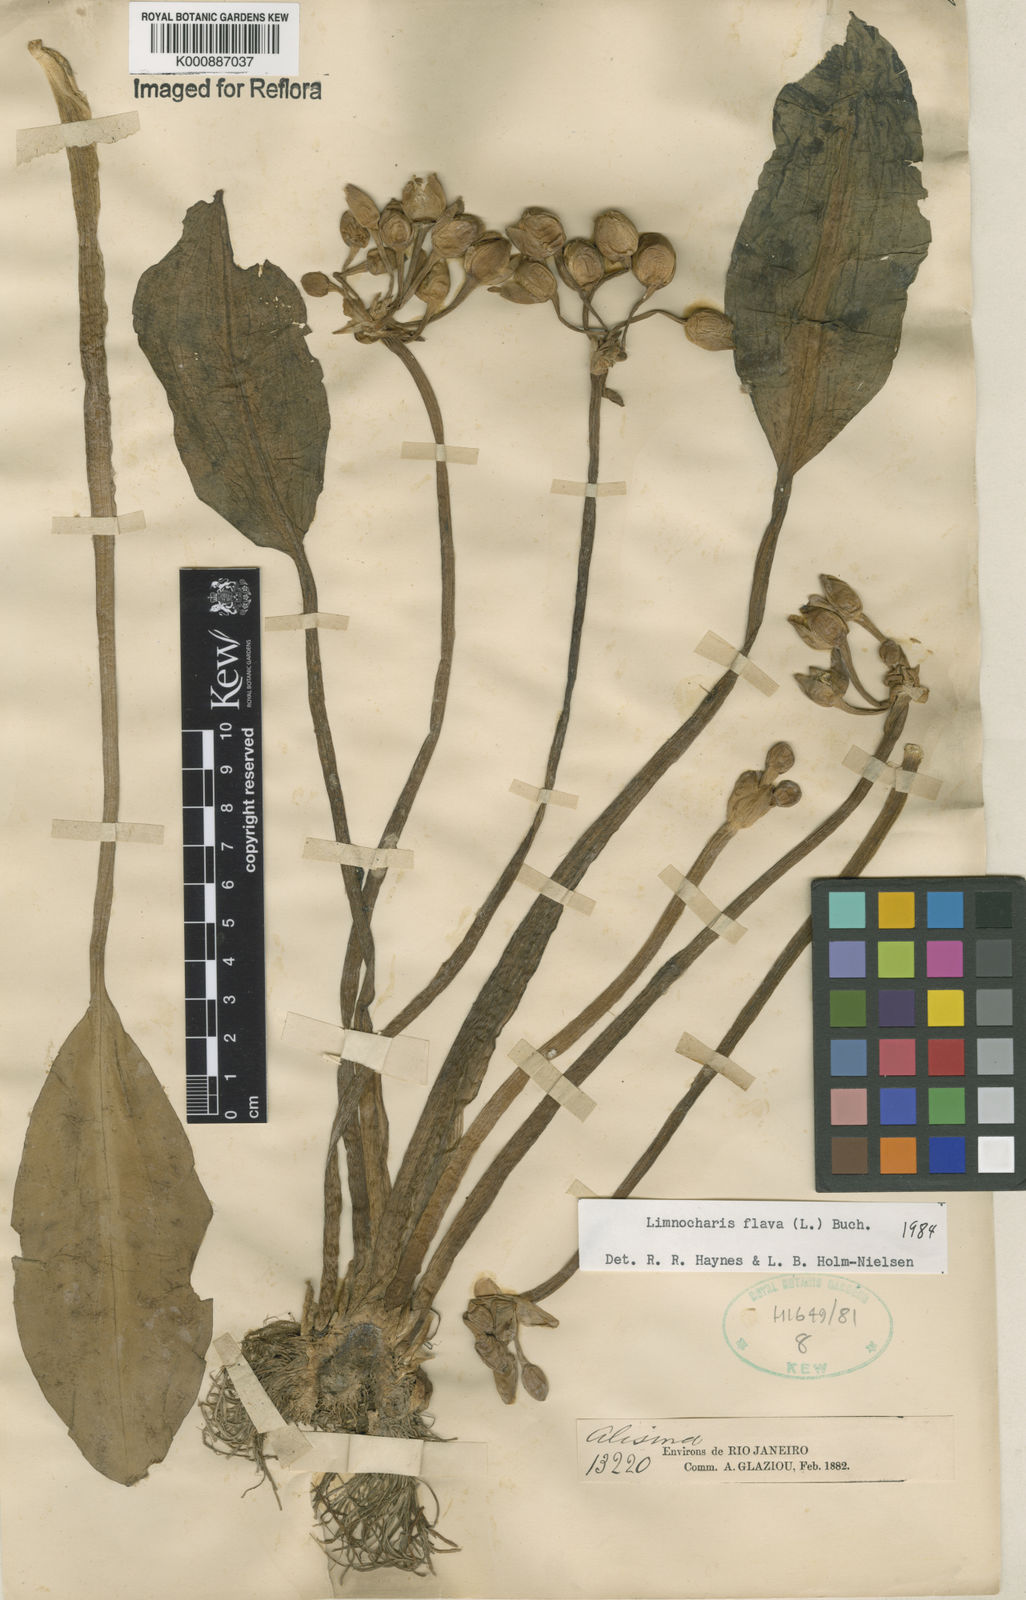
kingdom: Plantae
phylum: Tracheophyta
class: Liliopsida
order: Alismatales
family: Alismataceae
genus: Limnocharis
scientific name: Limnocharis flava
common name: Sawah-flower-rush
